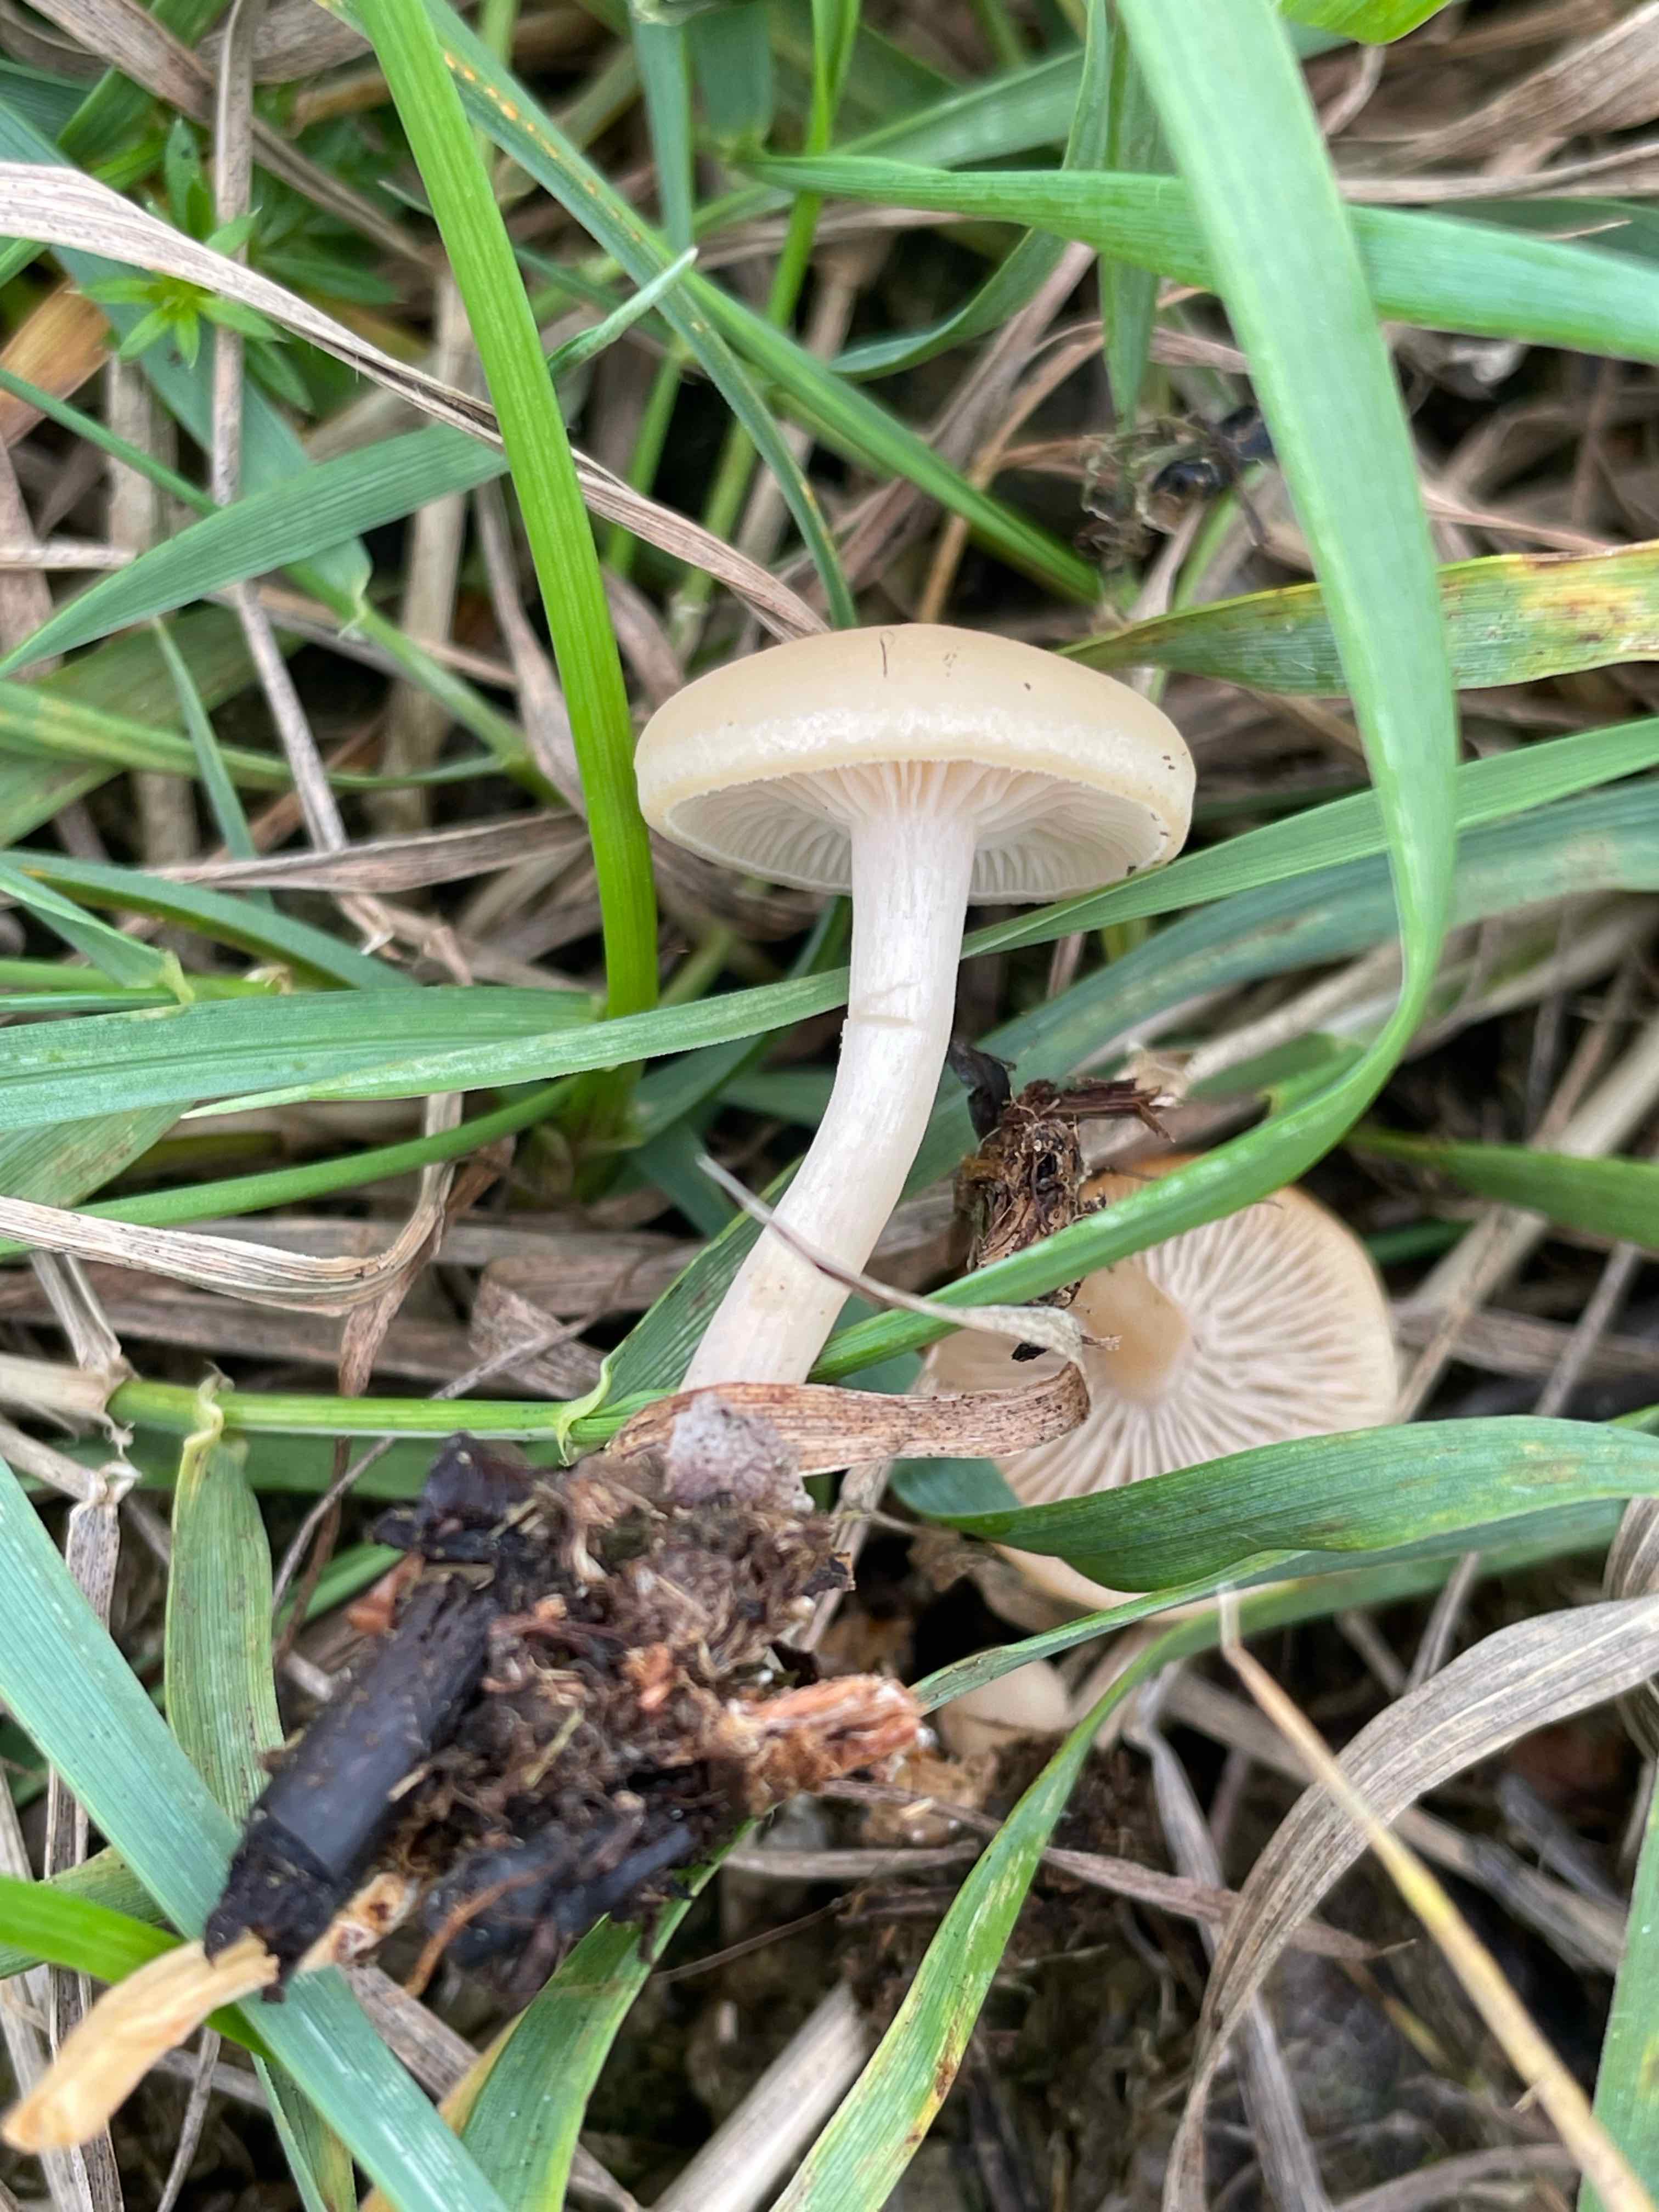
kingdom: Fungi
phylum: Basidiomycota
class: Agaricomycetes
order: Agaricales
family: Tricholomataceae
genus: Clitocybe
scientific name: Clitocybe agrestis
